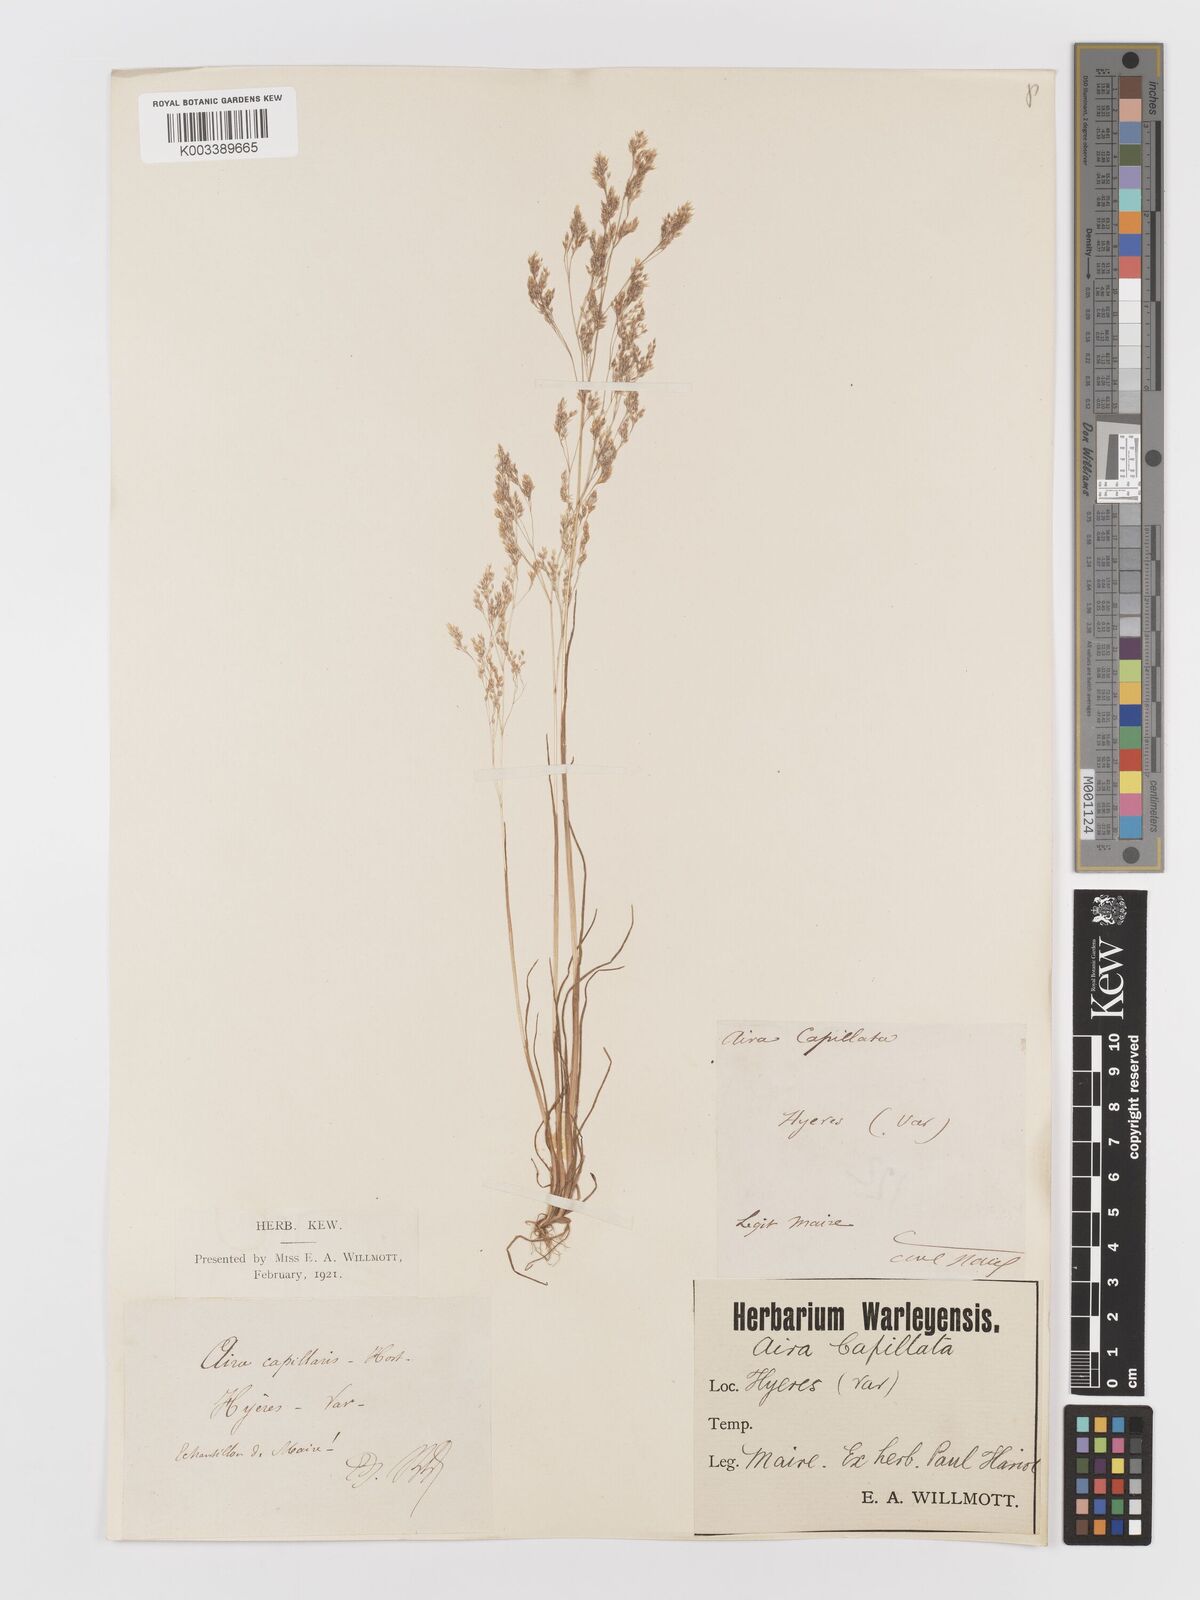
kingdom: Plantae
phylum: Tracheophyta
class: Liliopsida
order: Poales
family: Poaceae
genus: Aira
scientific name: Aira caryophyllea
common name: Silver hairgrass
